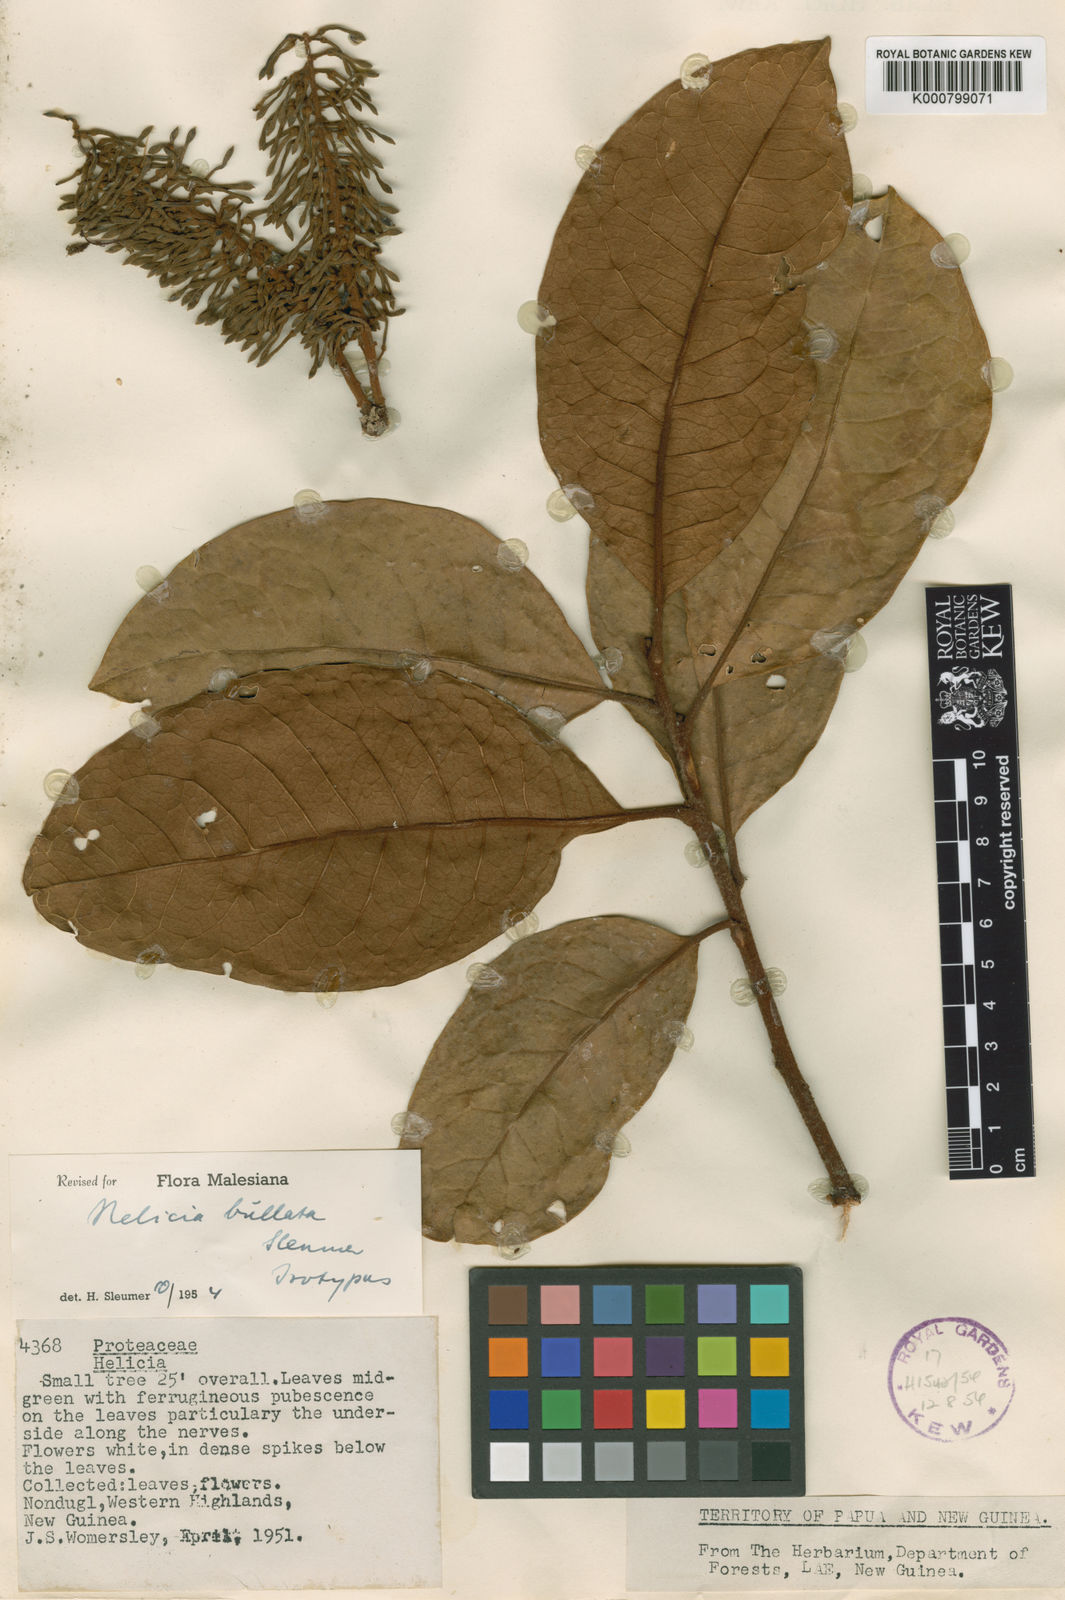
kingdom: Plantae
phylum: Tracheophyta
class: Magnoliopsida
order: Proteales
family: Proteaceae
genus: Helicia
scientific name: Helicia bullata
